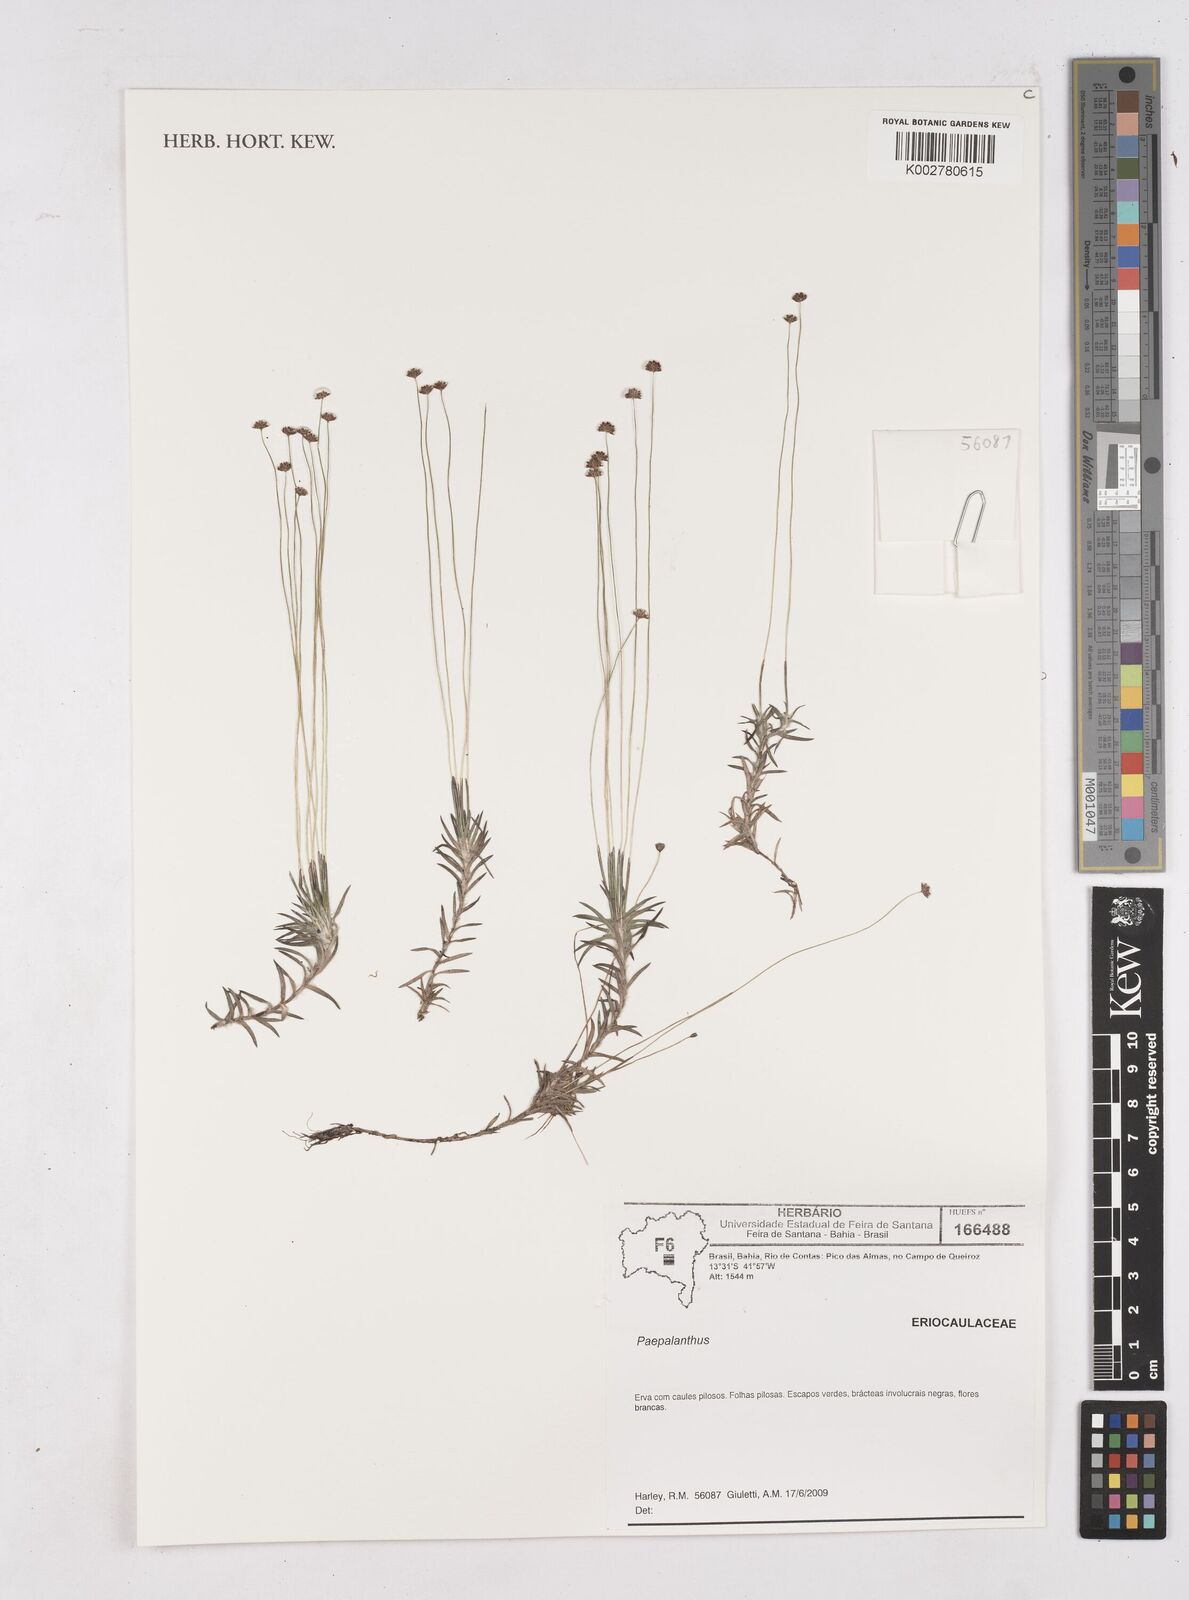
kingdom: Plantae
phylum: Tracheophyta
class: Liliopsida
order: Poales
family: Eriocaulaceae
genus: Paepalanthus
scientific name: Paepalanthus
